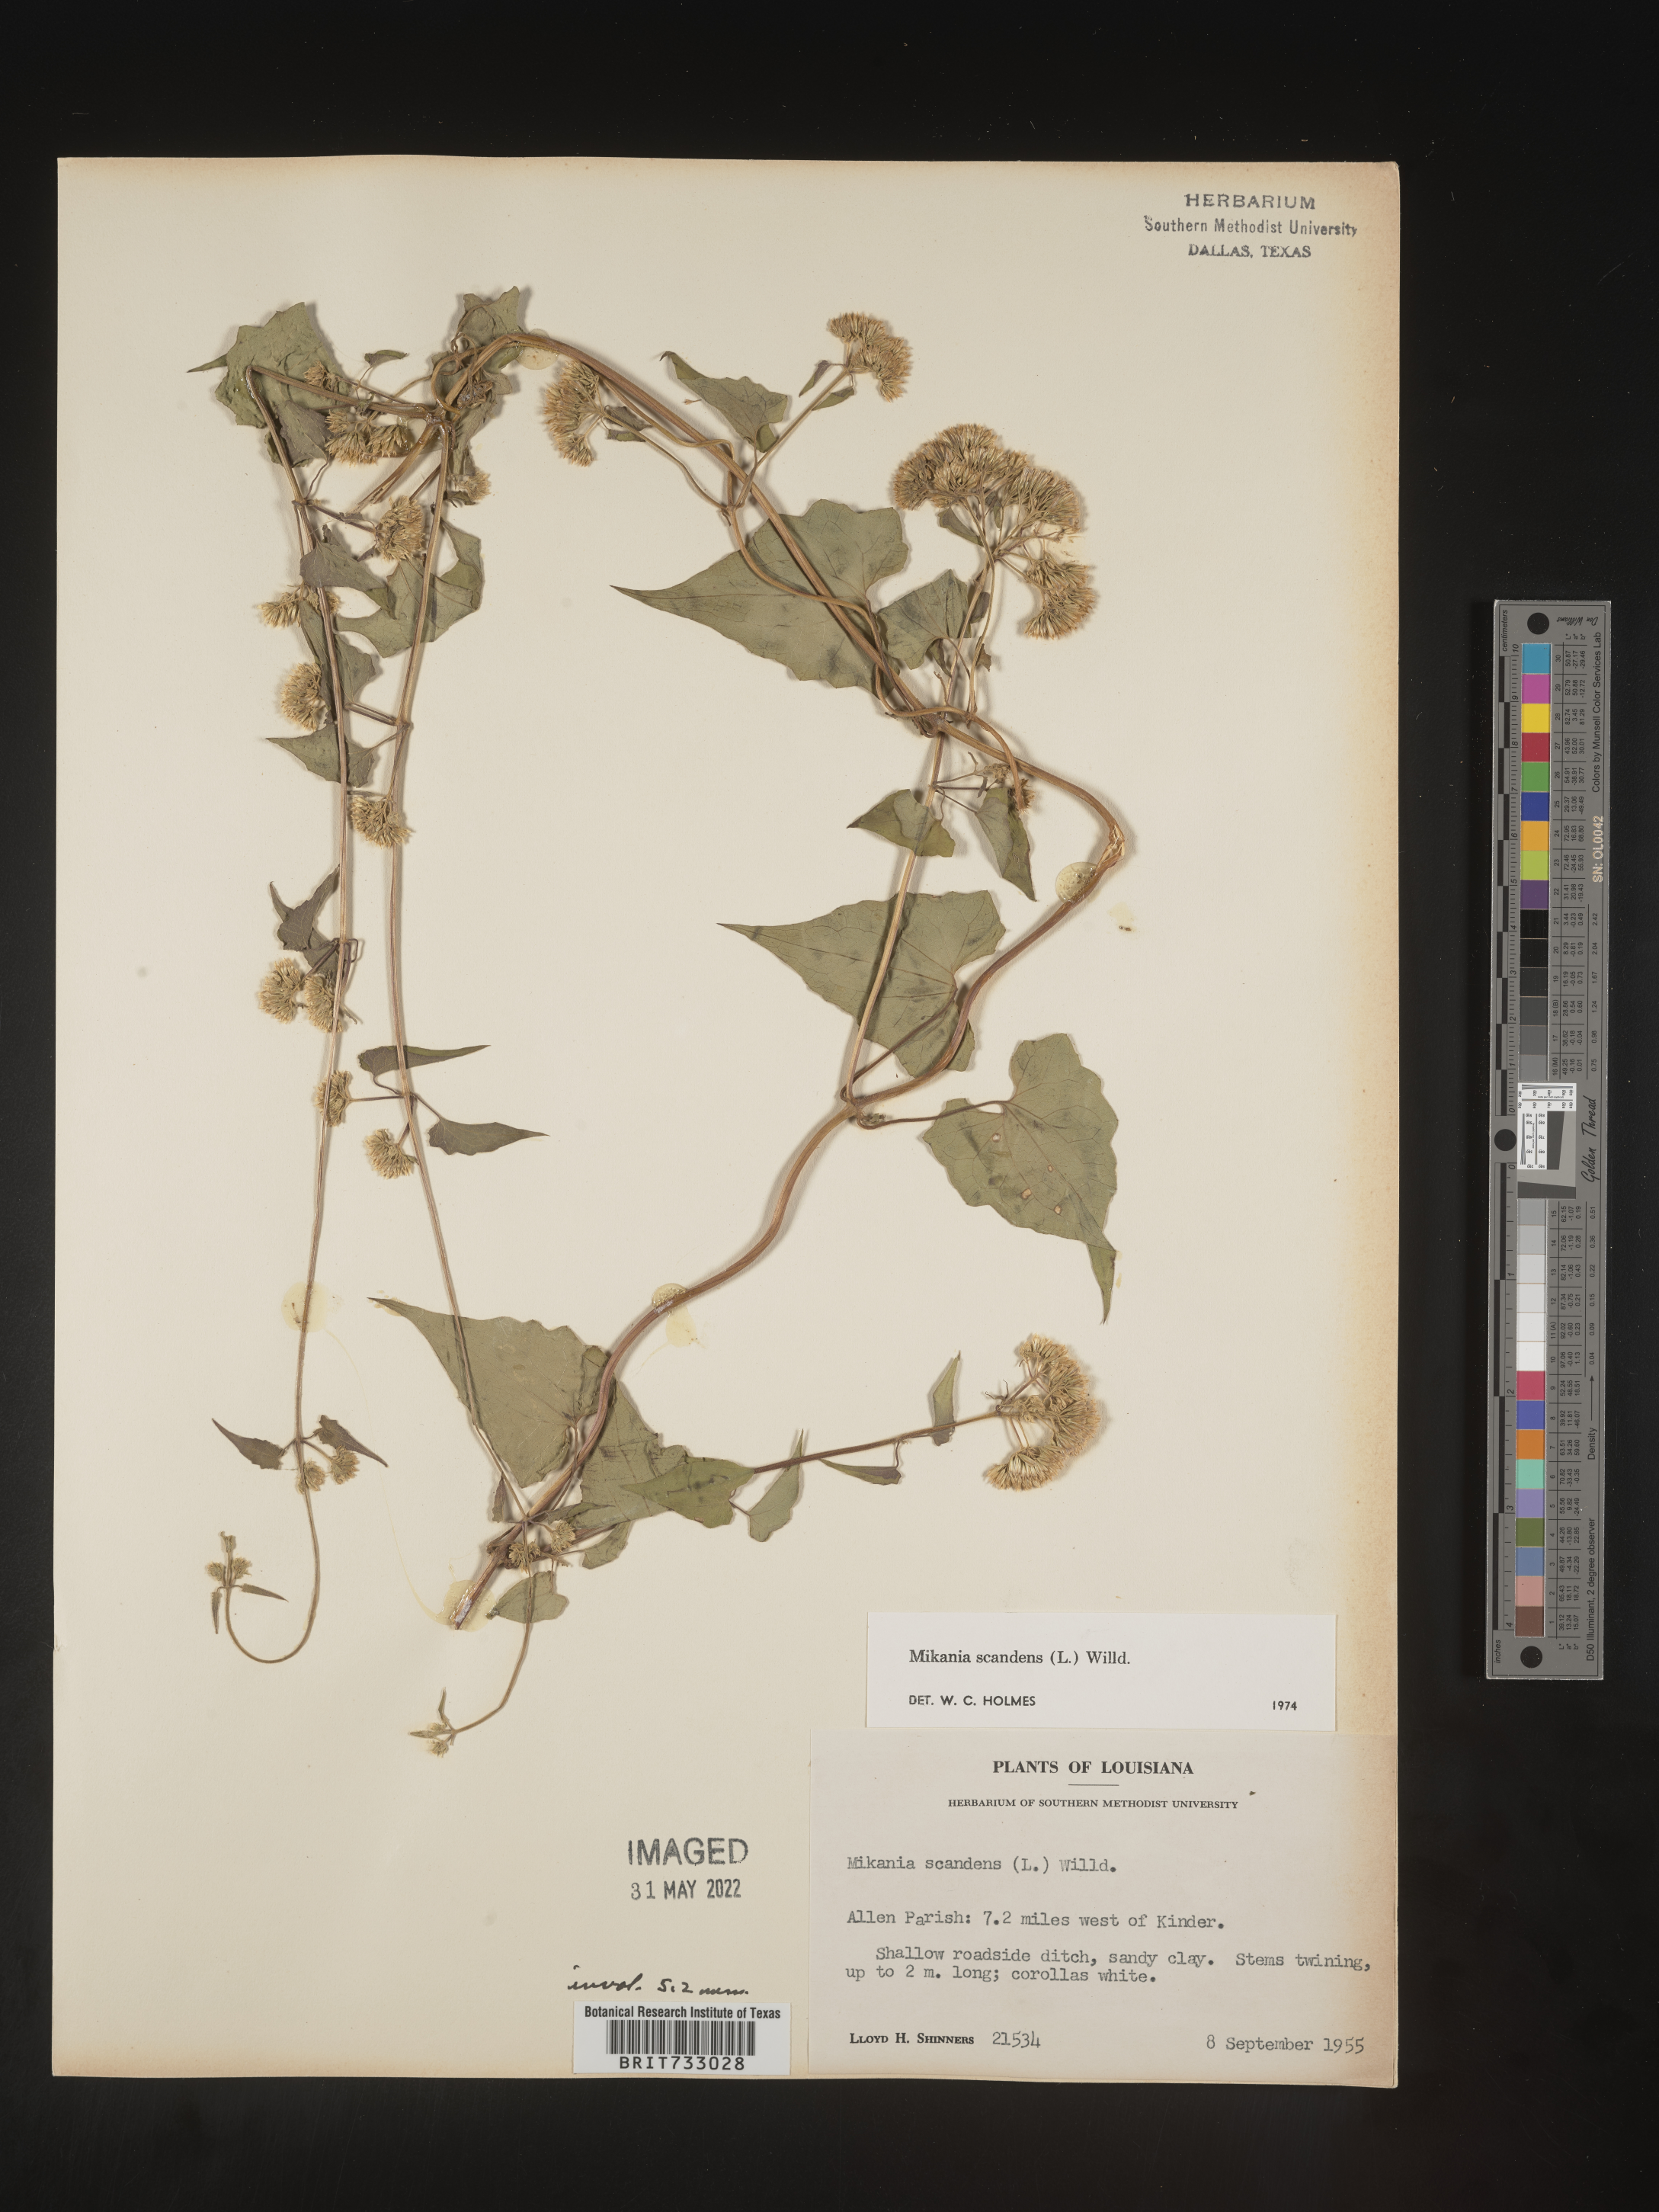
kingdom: Plantae
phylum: Tracheophyta
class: Magnoliopsida
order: Asterales
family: Asteraceae
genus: Mikania
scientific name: Mikania scandens
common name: Climbing hempvine
